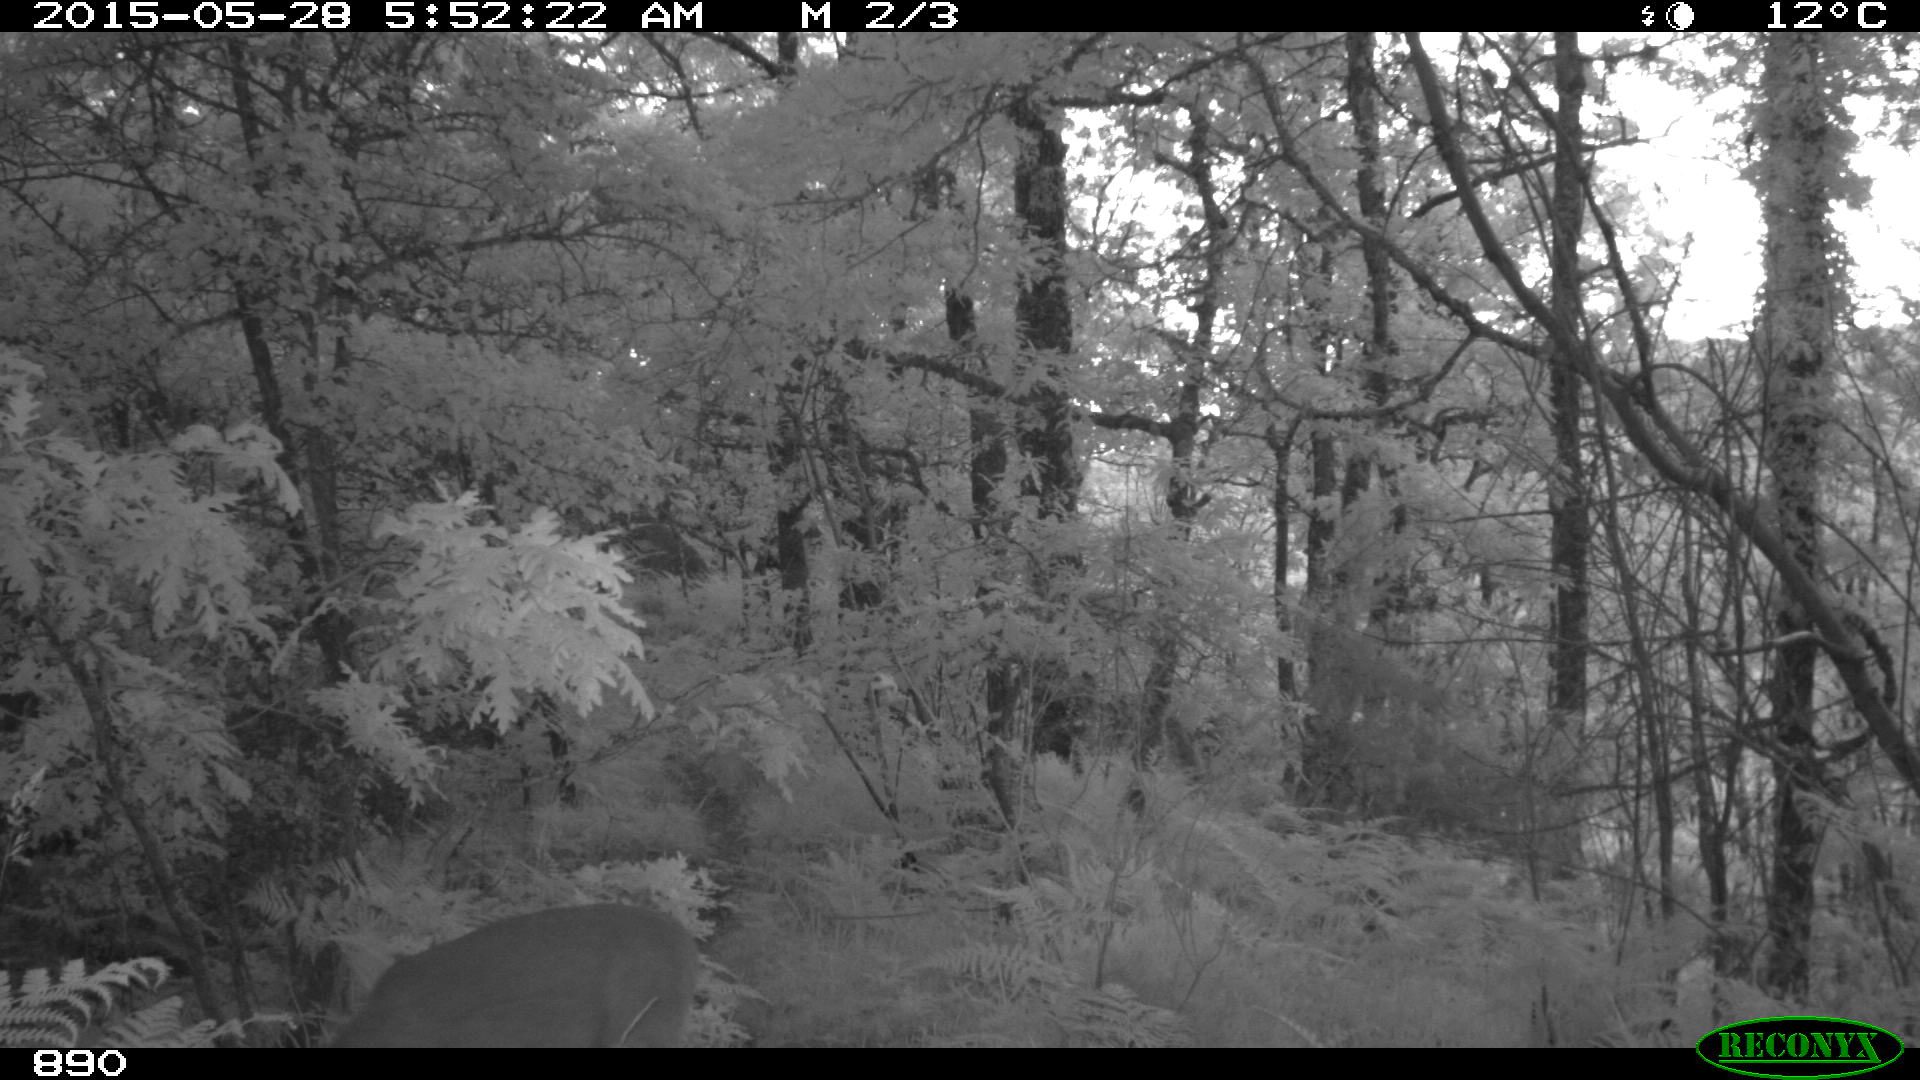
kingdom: Animalia
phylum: Chordata
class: Mammalia
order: Artiodactyla
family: Cervidae
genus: Capreolus
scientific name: Capreolus capreolus
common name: Western roe deer
